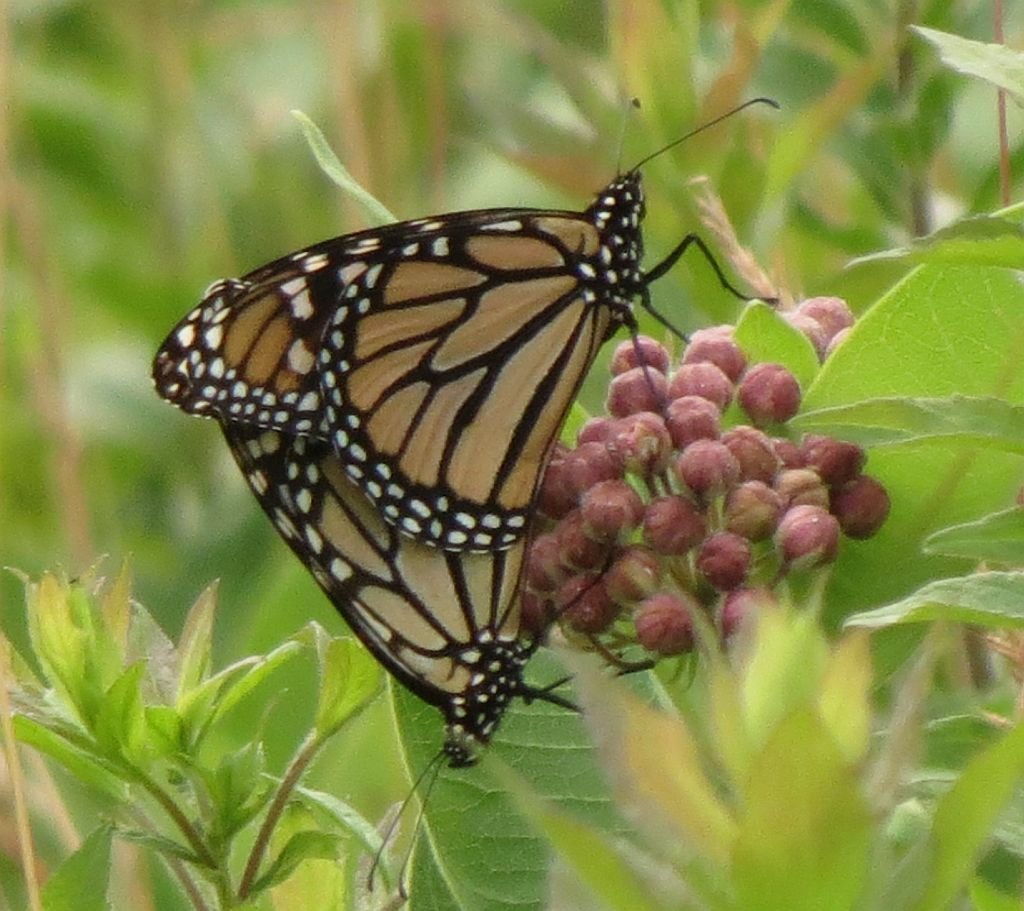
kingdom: Animalia
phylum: Arthropoda
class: Insecta
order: Lepidoptera
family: Nymphalidae
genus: Danaus
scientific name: Danaus plexippus
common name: Monarch
